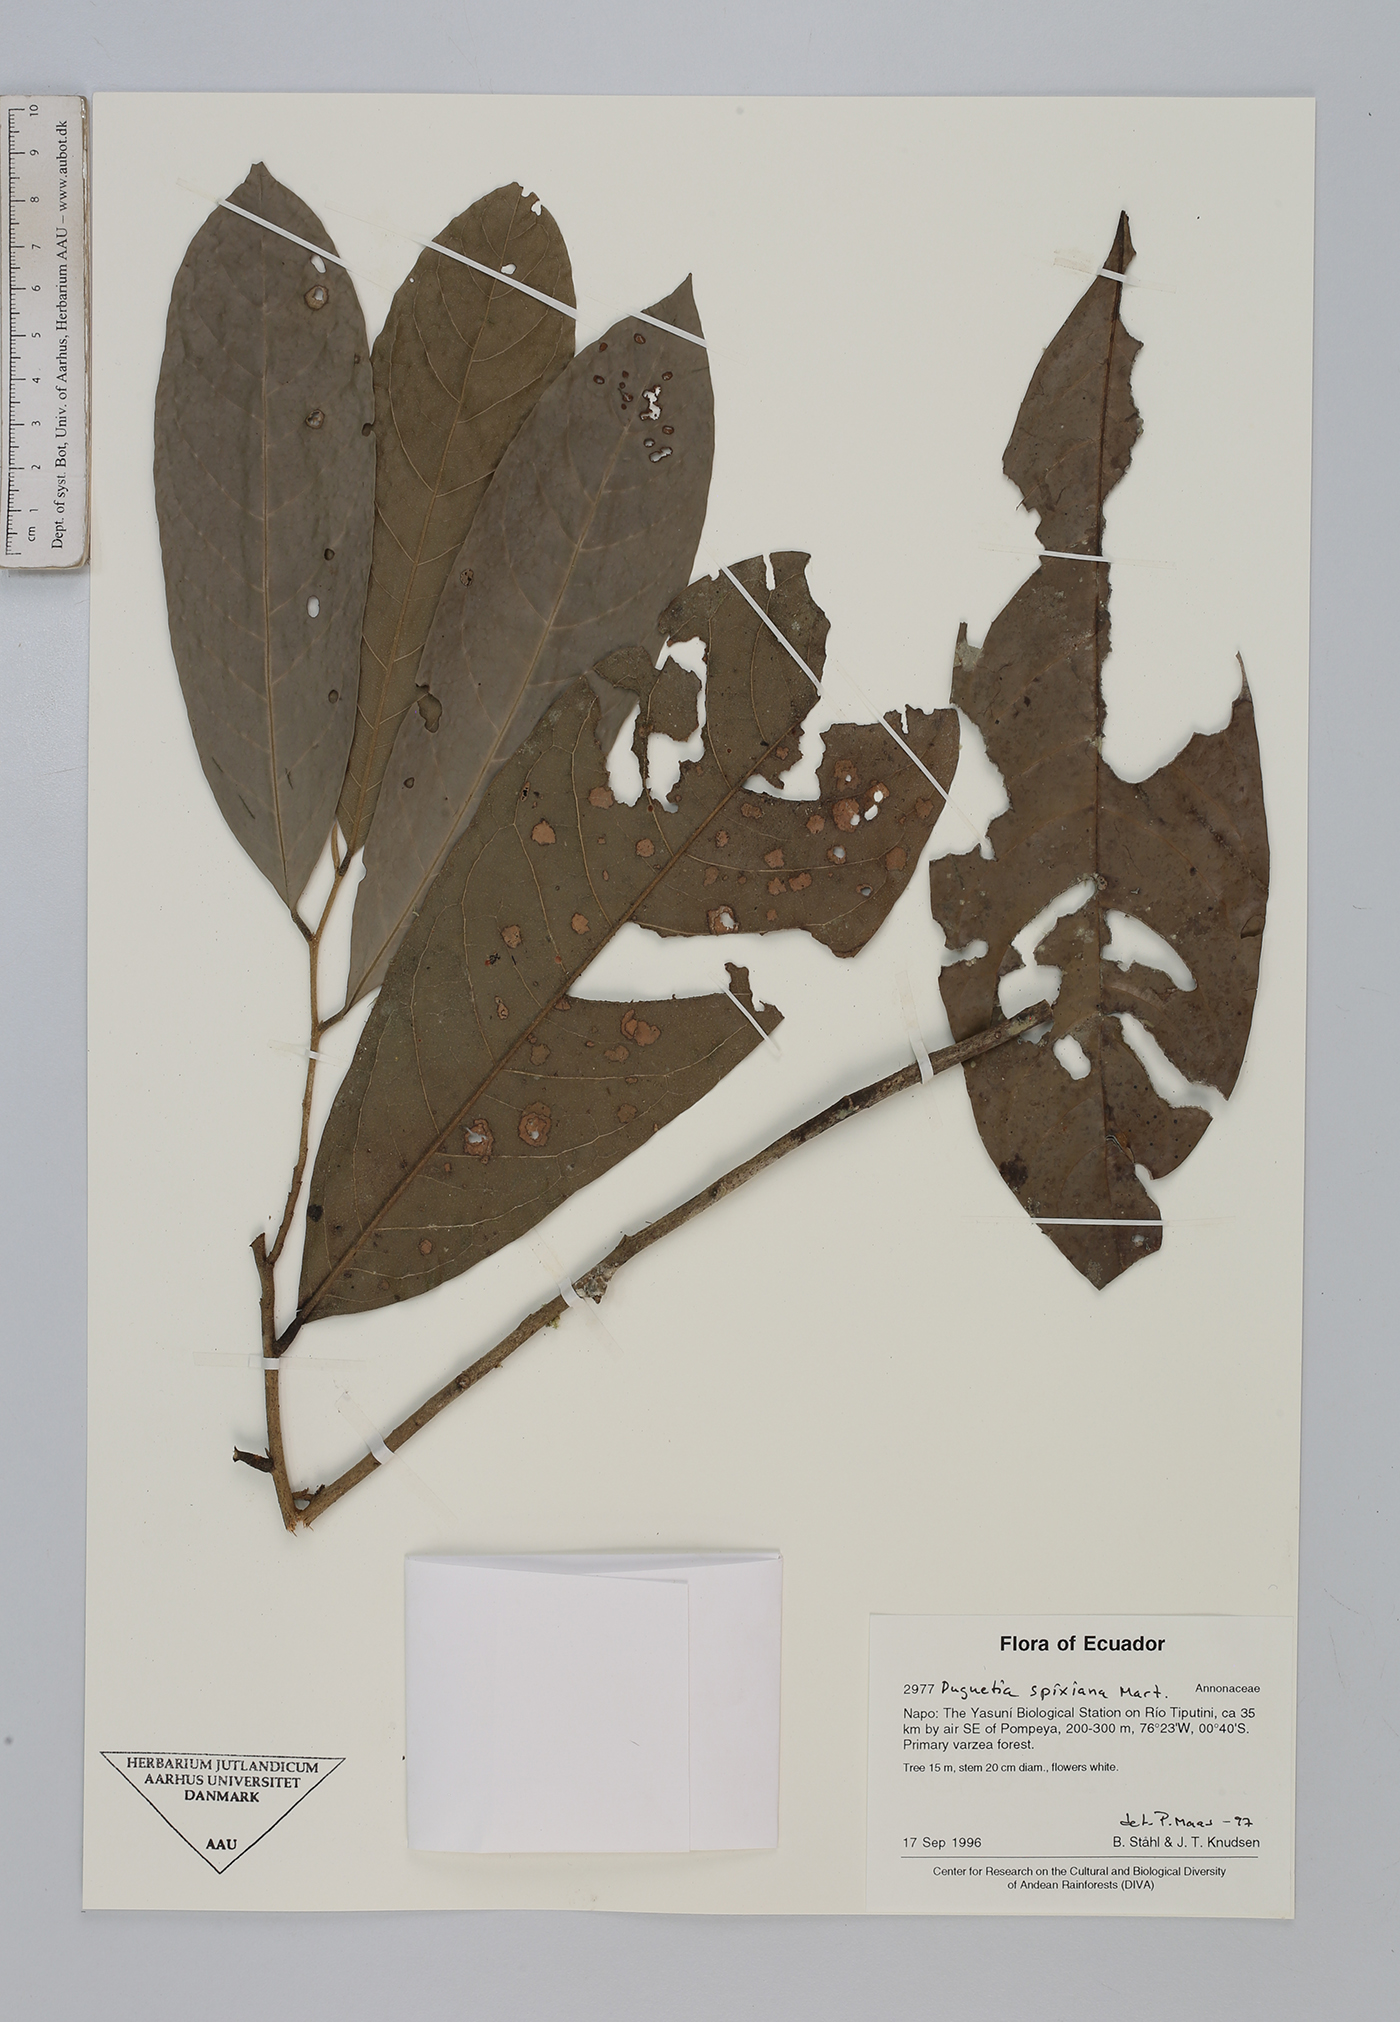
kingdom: Plantae
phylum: Tracheophyta
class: Magnoliopsida
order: Magnoliales
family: Annonaceae
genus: Duguetia
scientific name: Duguetia spixiana
